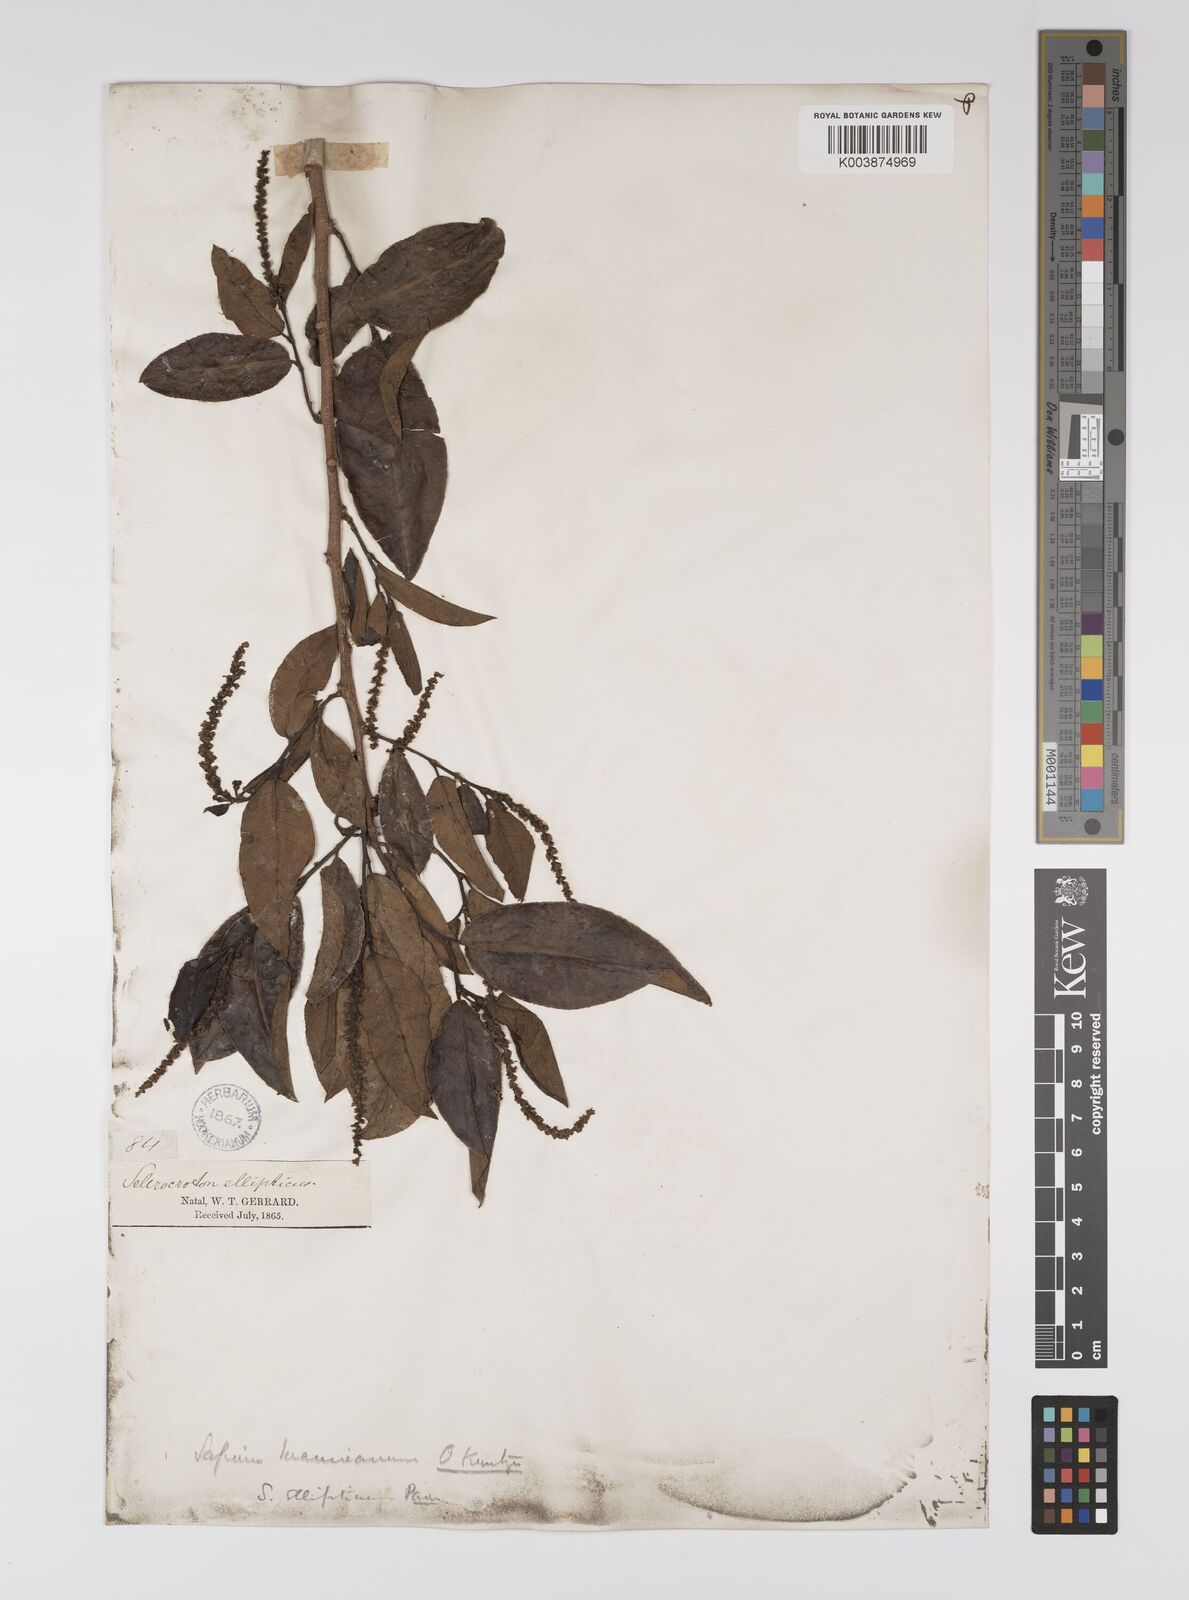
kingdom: Plantae
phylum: Tracheophyta
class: Magnoliopsida
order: Malpighiales
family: Euphorbiaceae
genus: Shirakiopsis
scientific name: Shirakiopsis elliptica
